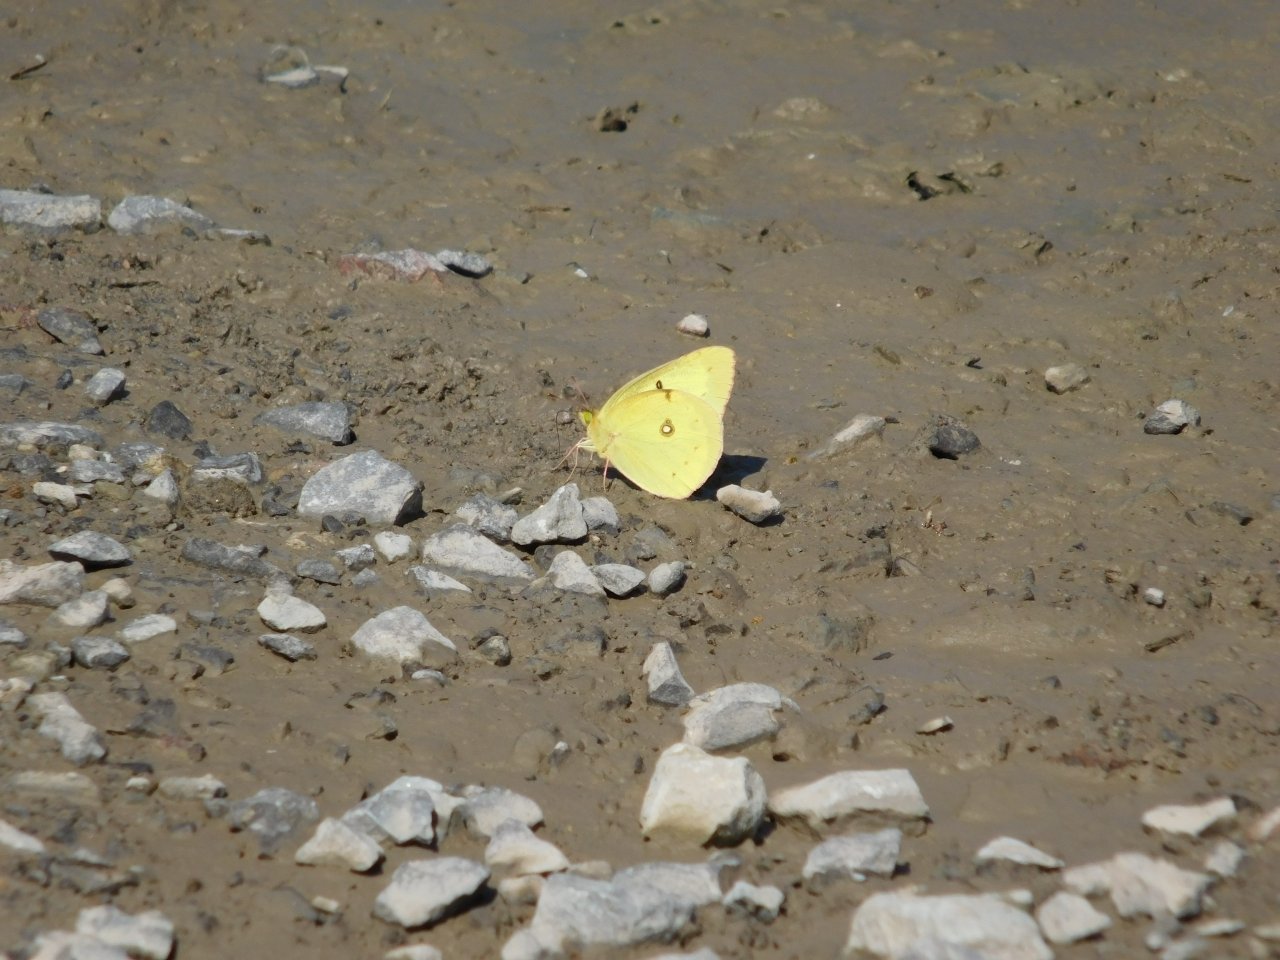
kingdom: Animalia
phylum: Arthropoda
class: Insecta
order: Lepidoptera
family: Pieridae
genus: Colias
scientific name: Colias philodice
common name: Clouded Sulphur
